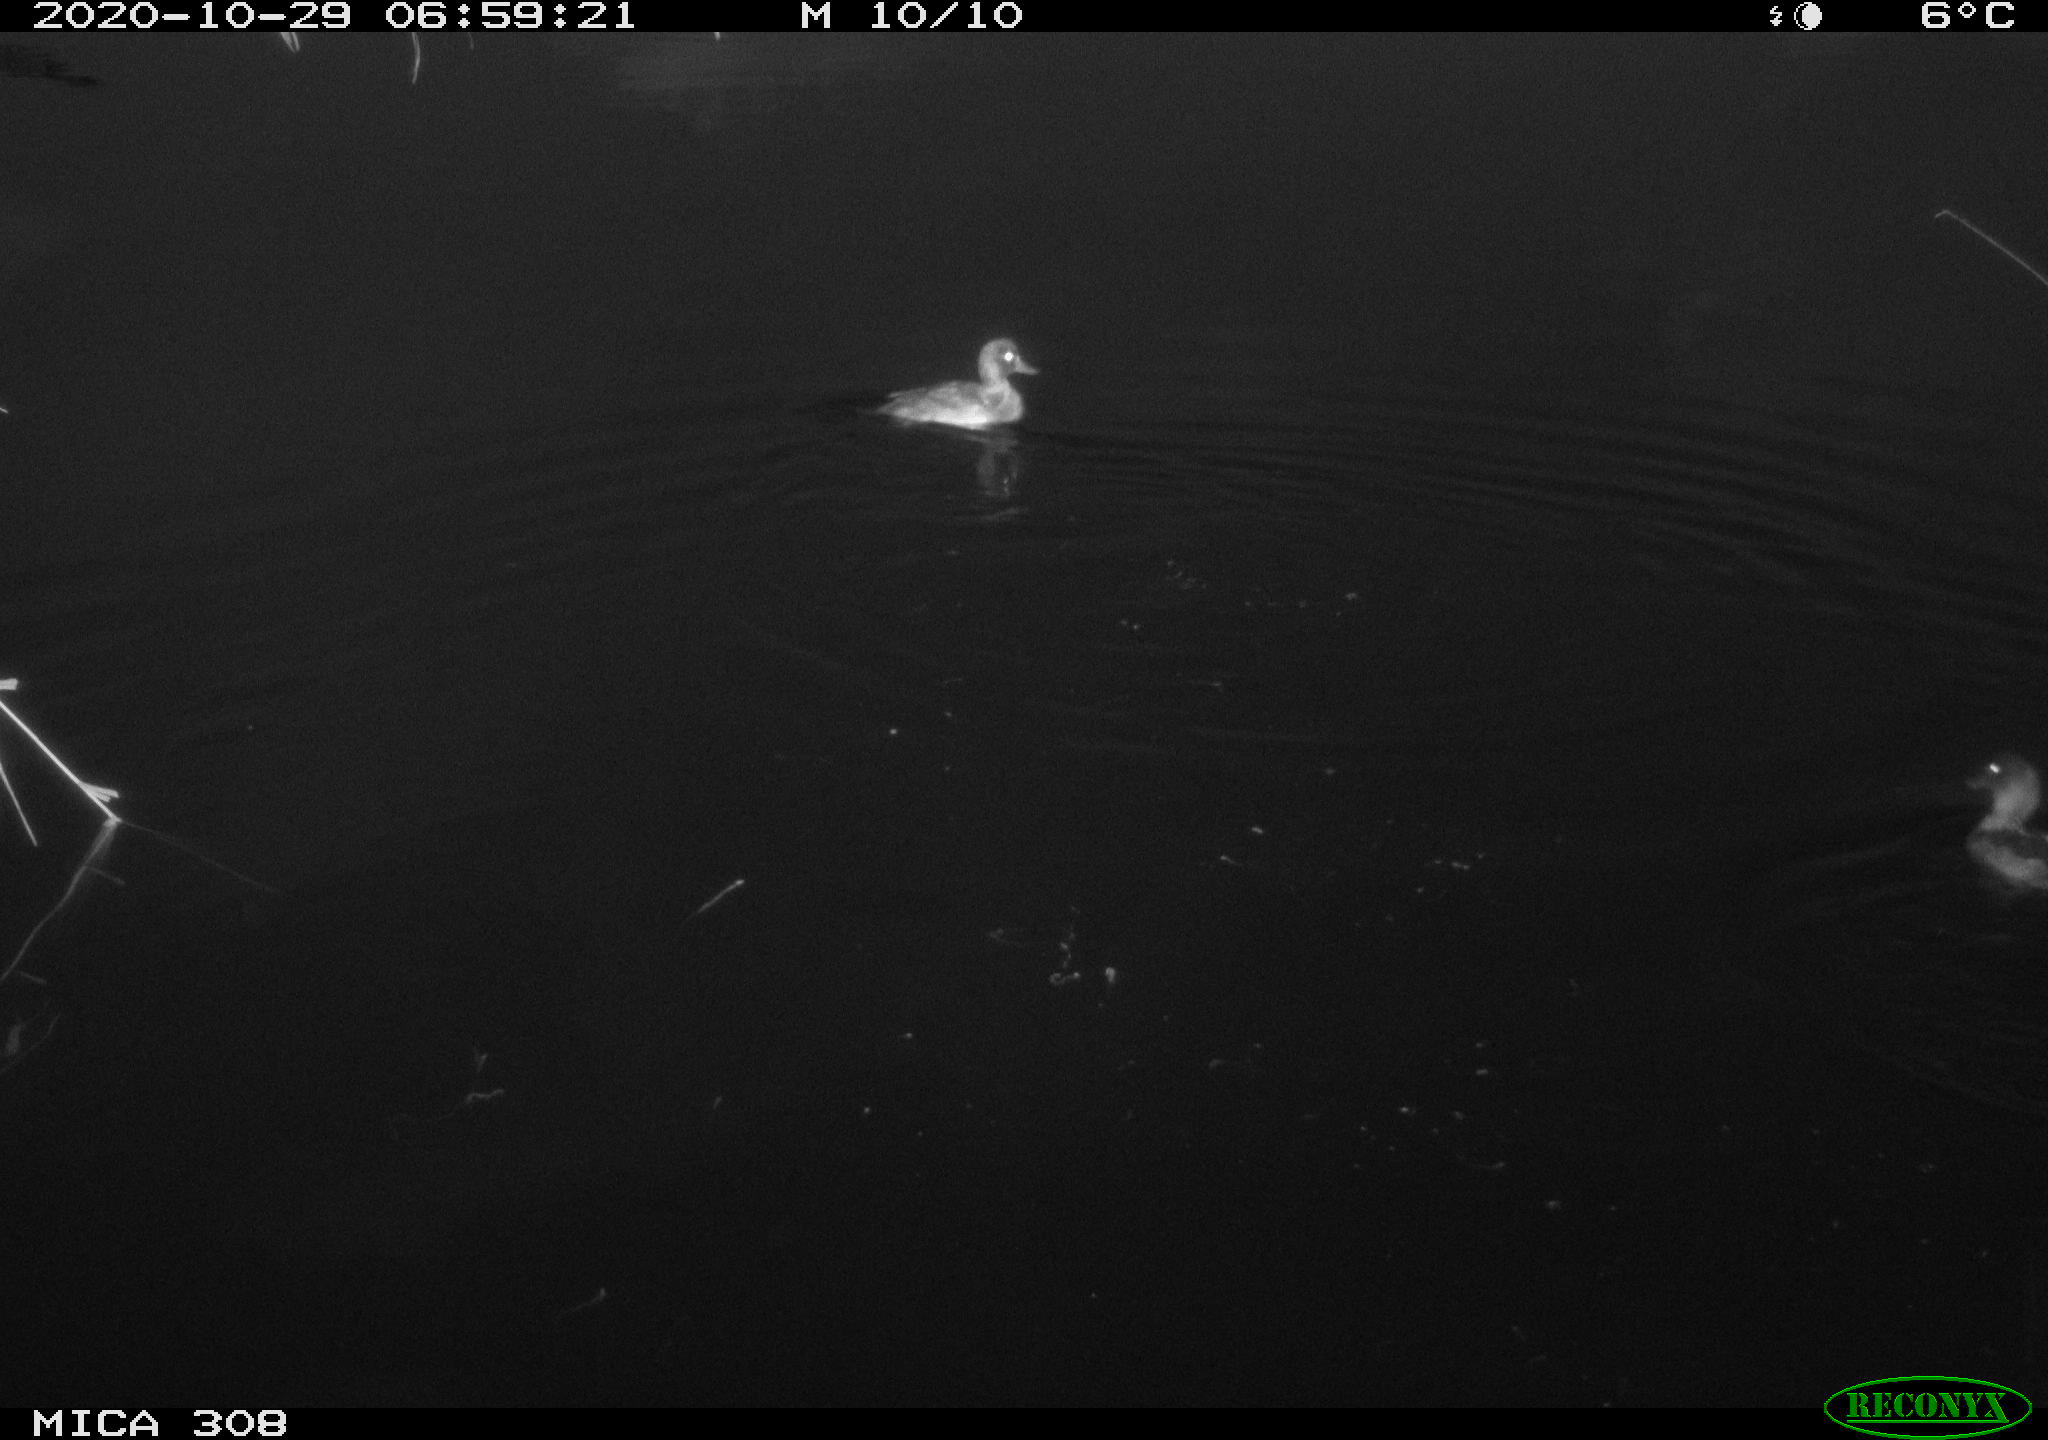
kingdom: Animalia
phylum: Chordata
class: Aves
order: Anseriformes
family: Anatidae
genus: Aythya
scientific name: Aythya fuligula
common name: Tufted duck
